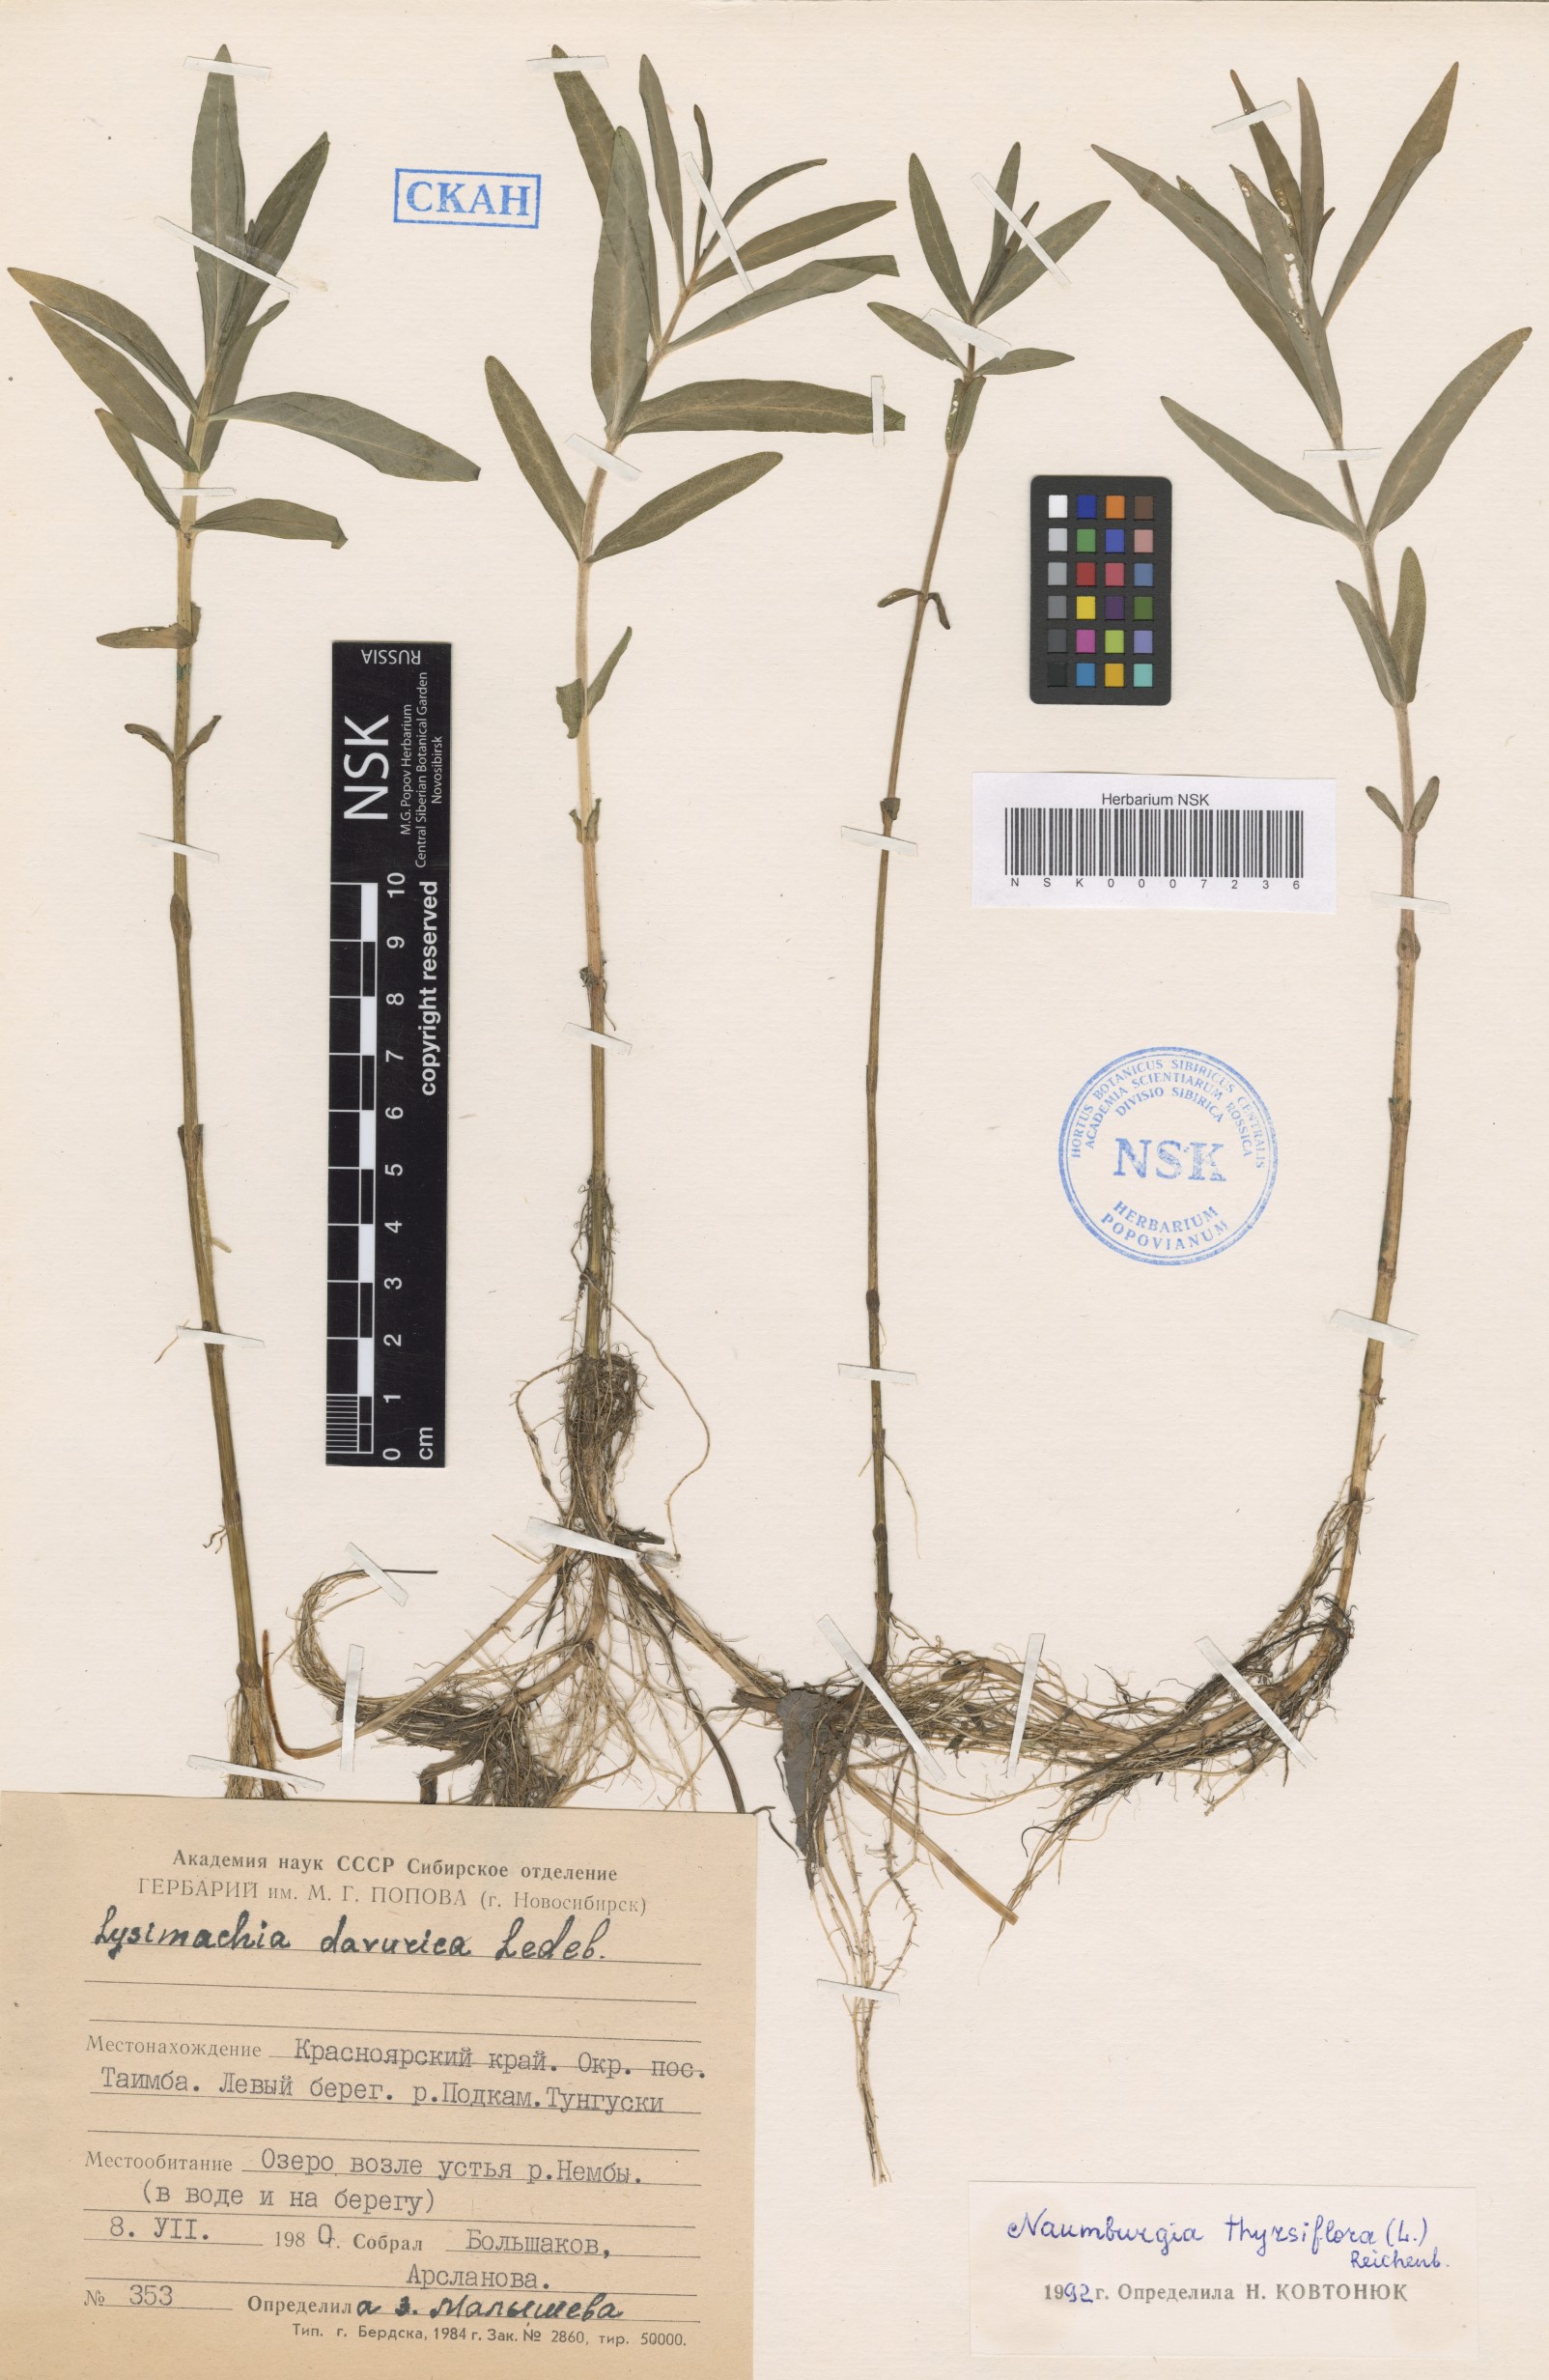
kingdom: Plantae
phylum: Tracheophyta
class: Magnoliopsida
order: Ericales
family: Primulaceae
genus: Lysimachia
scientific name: Lysimachia thyrsiflora
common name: Tufted loosestrife
